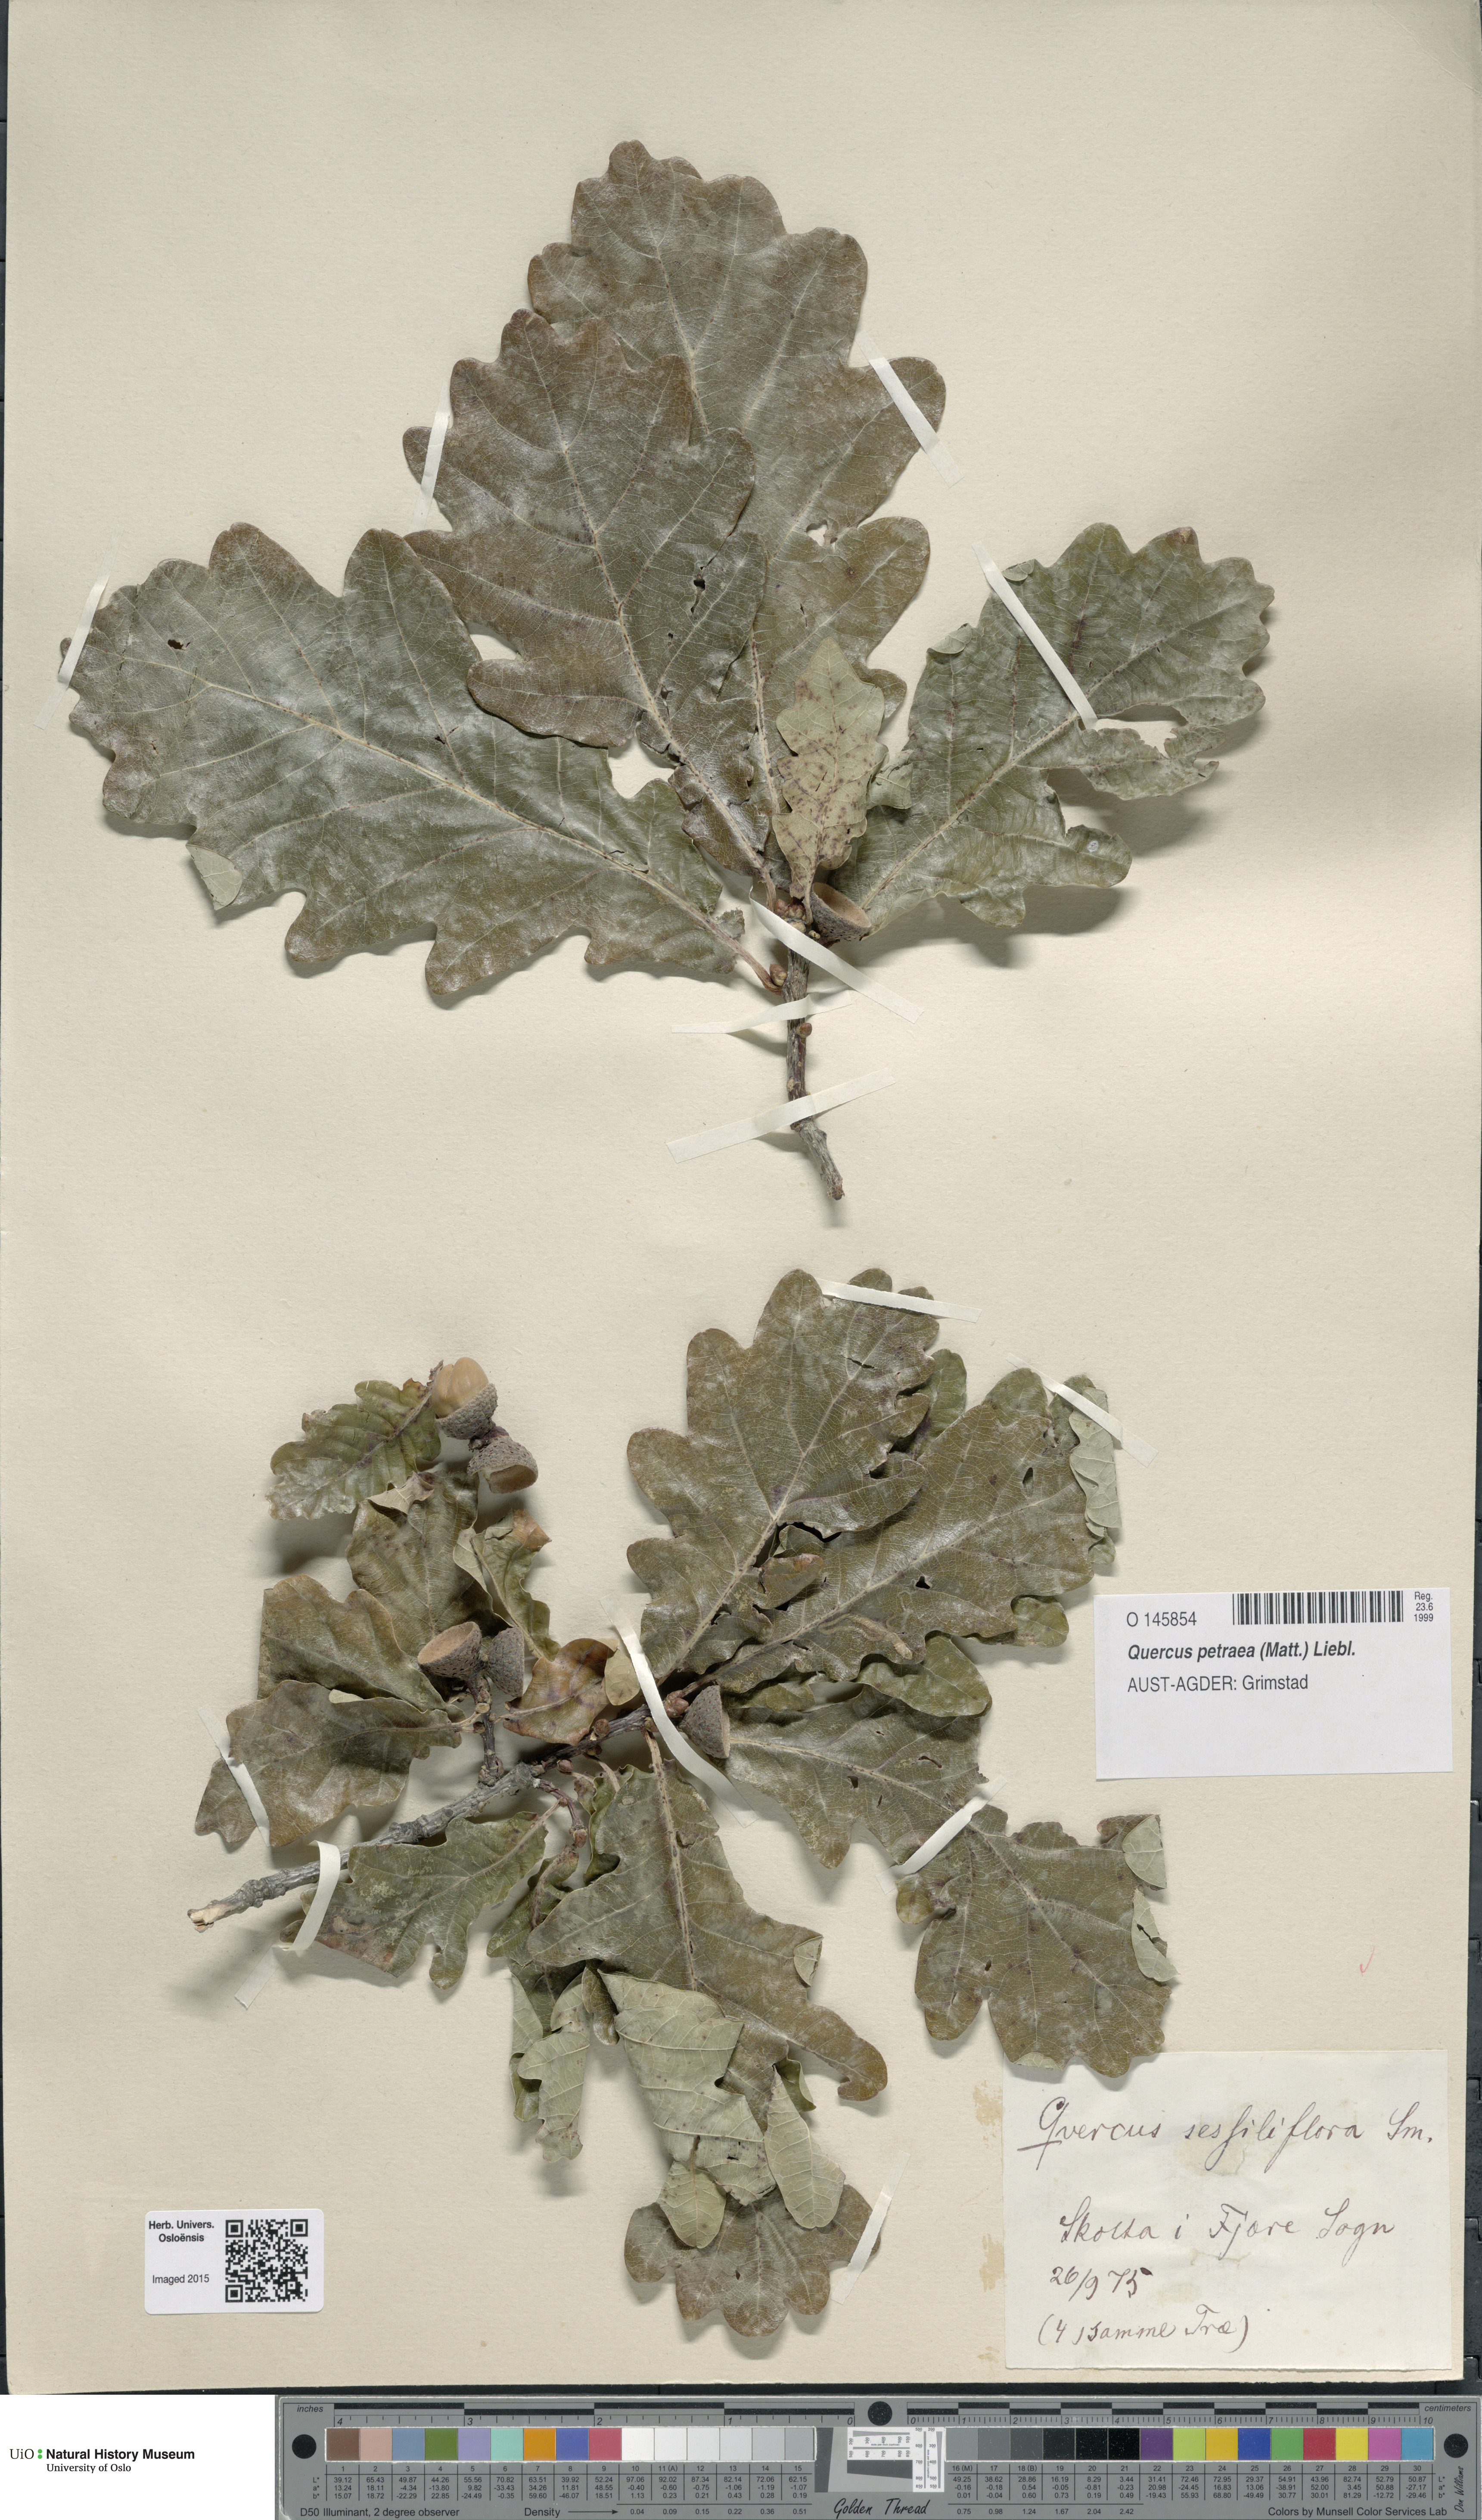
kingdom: Plantae
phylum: Tracheophyta
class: Magnoliopsida
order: Fagales
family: Fagaceae
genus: Quercus
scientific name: Quercus petraea
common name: Sessile oak
